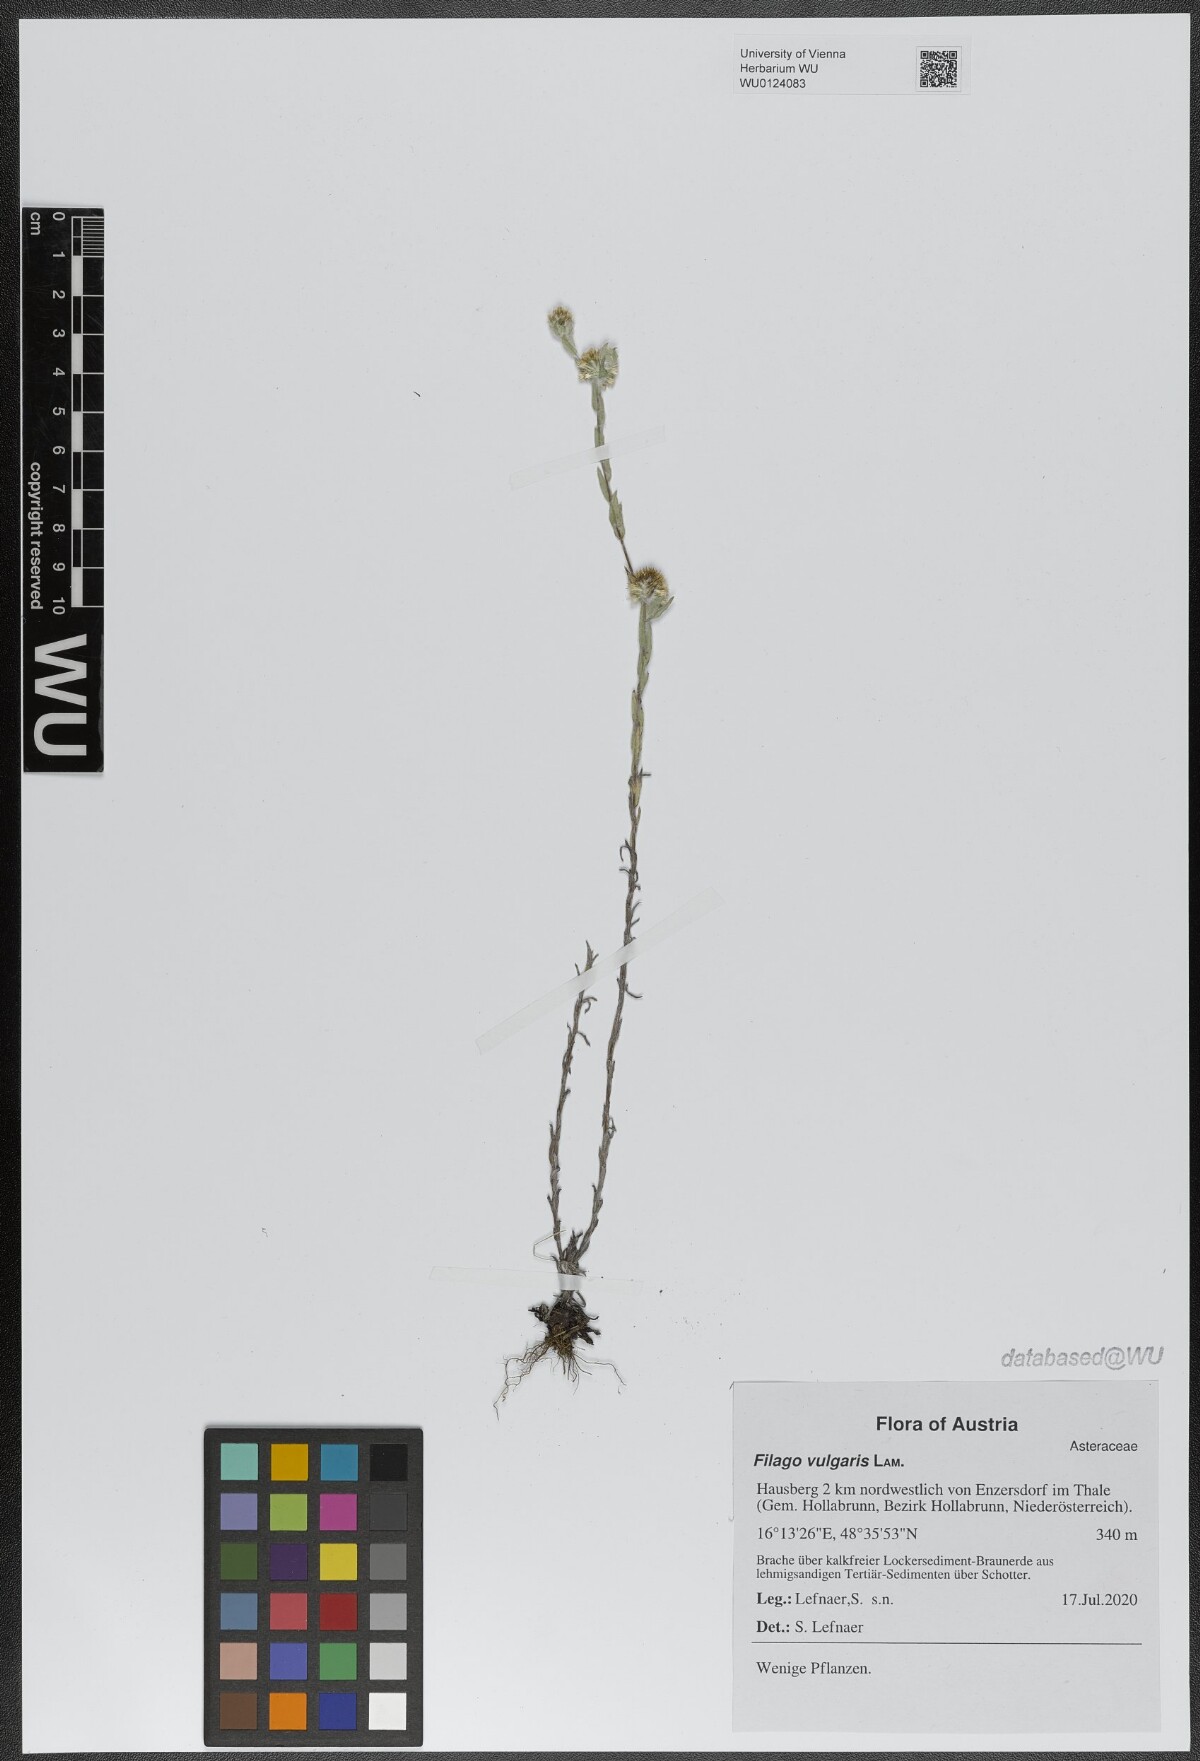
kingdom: Plantae
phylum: Tracheophyta
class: Magnoliopsida
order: Asterales
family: Asteraceae
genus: Filago
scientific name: Filago germanica
